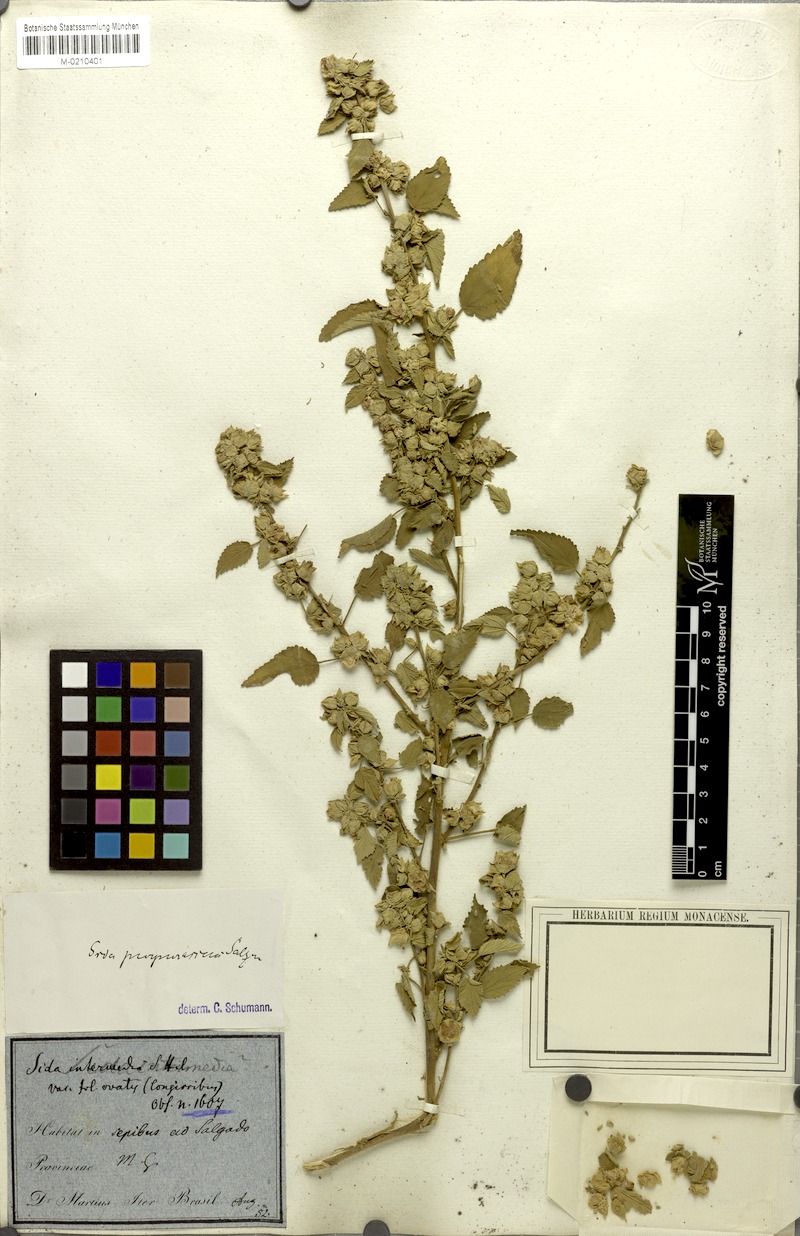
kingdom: Plantae
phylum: Tracheophyta
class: Magnoliopsida
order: Malvales
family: Malvaceae
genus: Bakeridesia
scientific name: Bakeridesia esculenta
